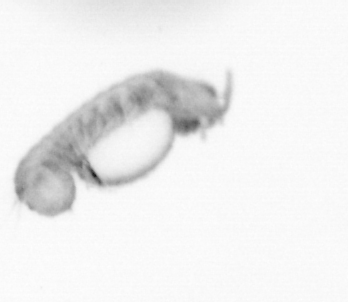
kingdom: Animalia
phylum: Annelida
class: Polychaeta
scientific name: Polychaeta
